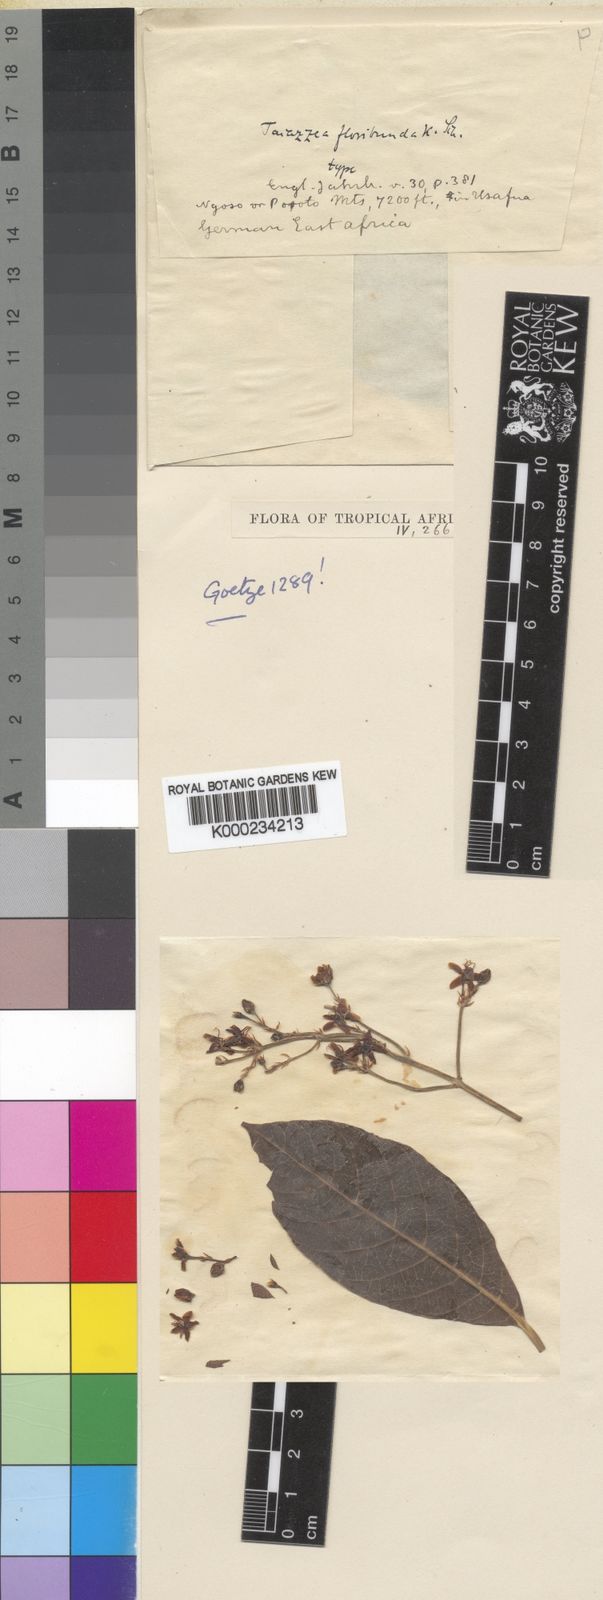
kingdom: Plantae
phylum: Tracheophyta
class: Magnoliopsida
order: Gentianales
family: Apocynaceae
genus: Tacazzea
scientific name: Tacazzea apiculata
